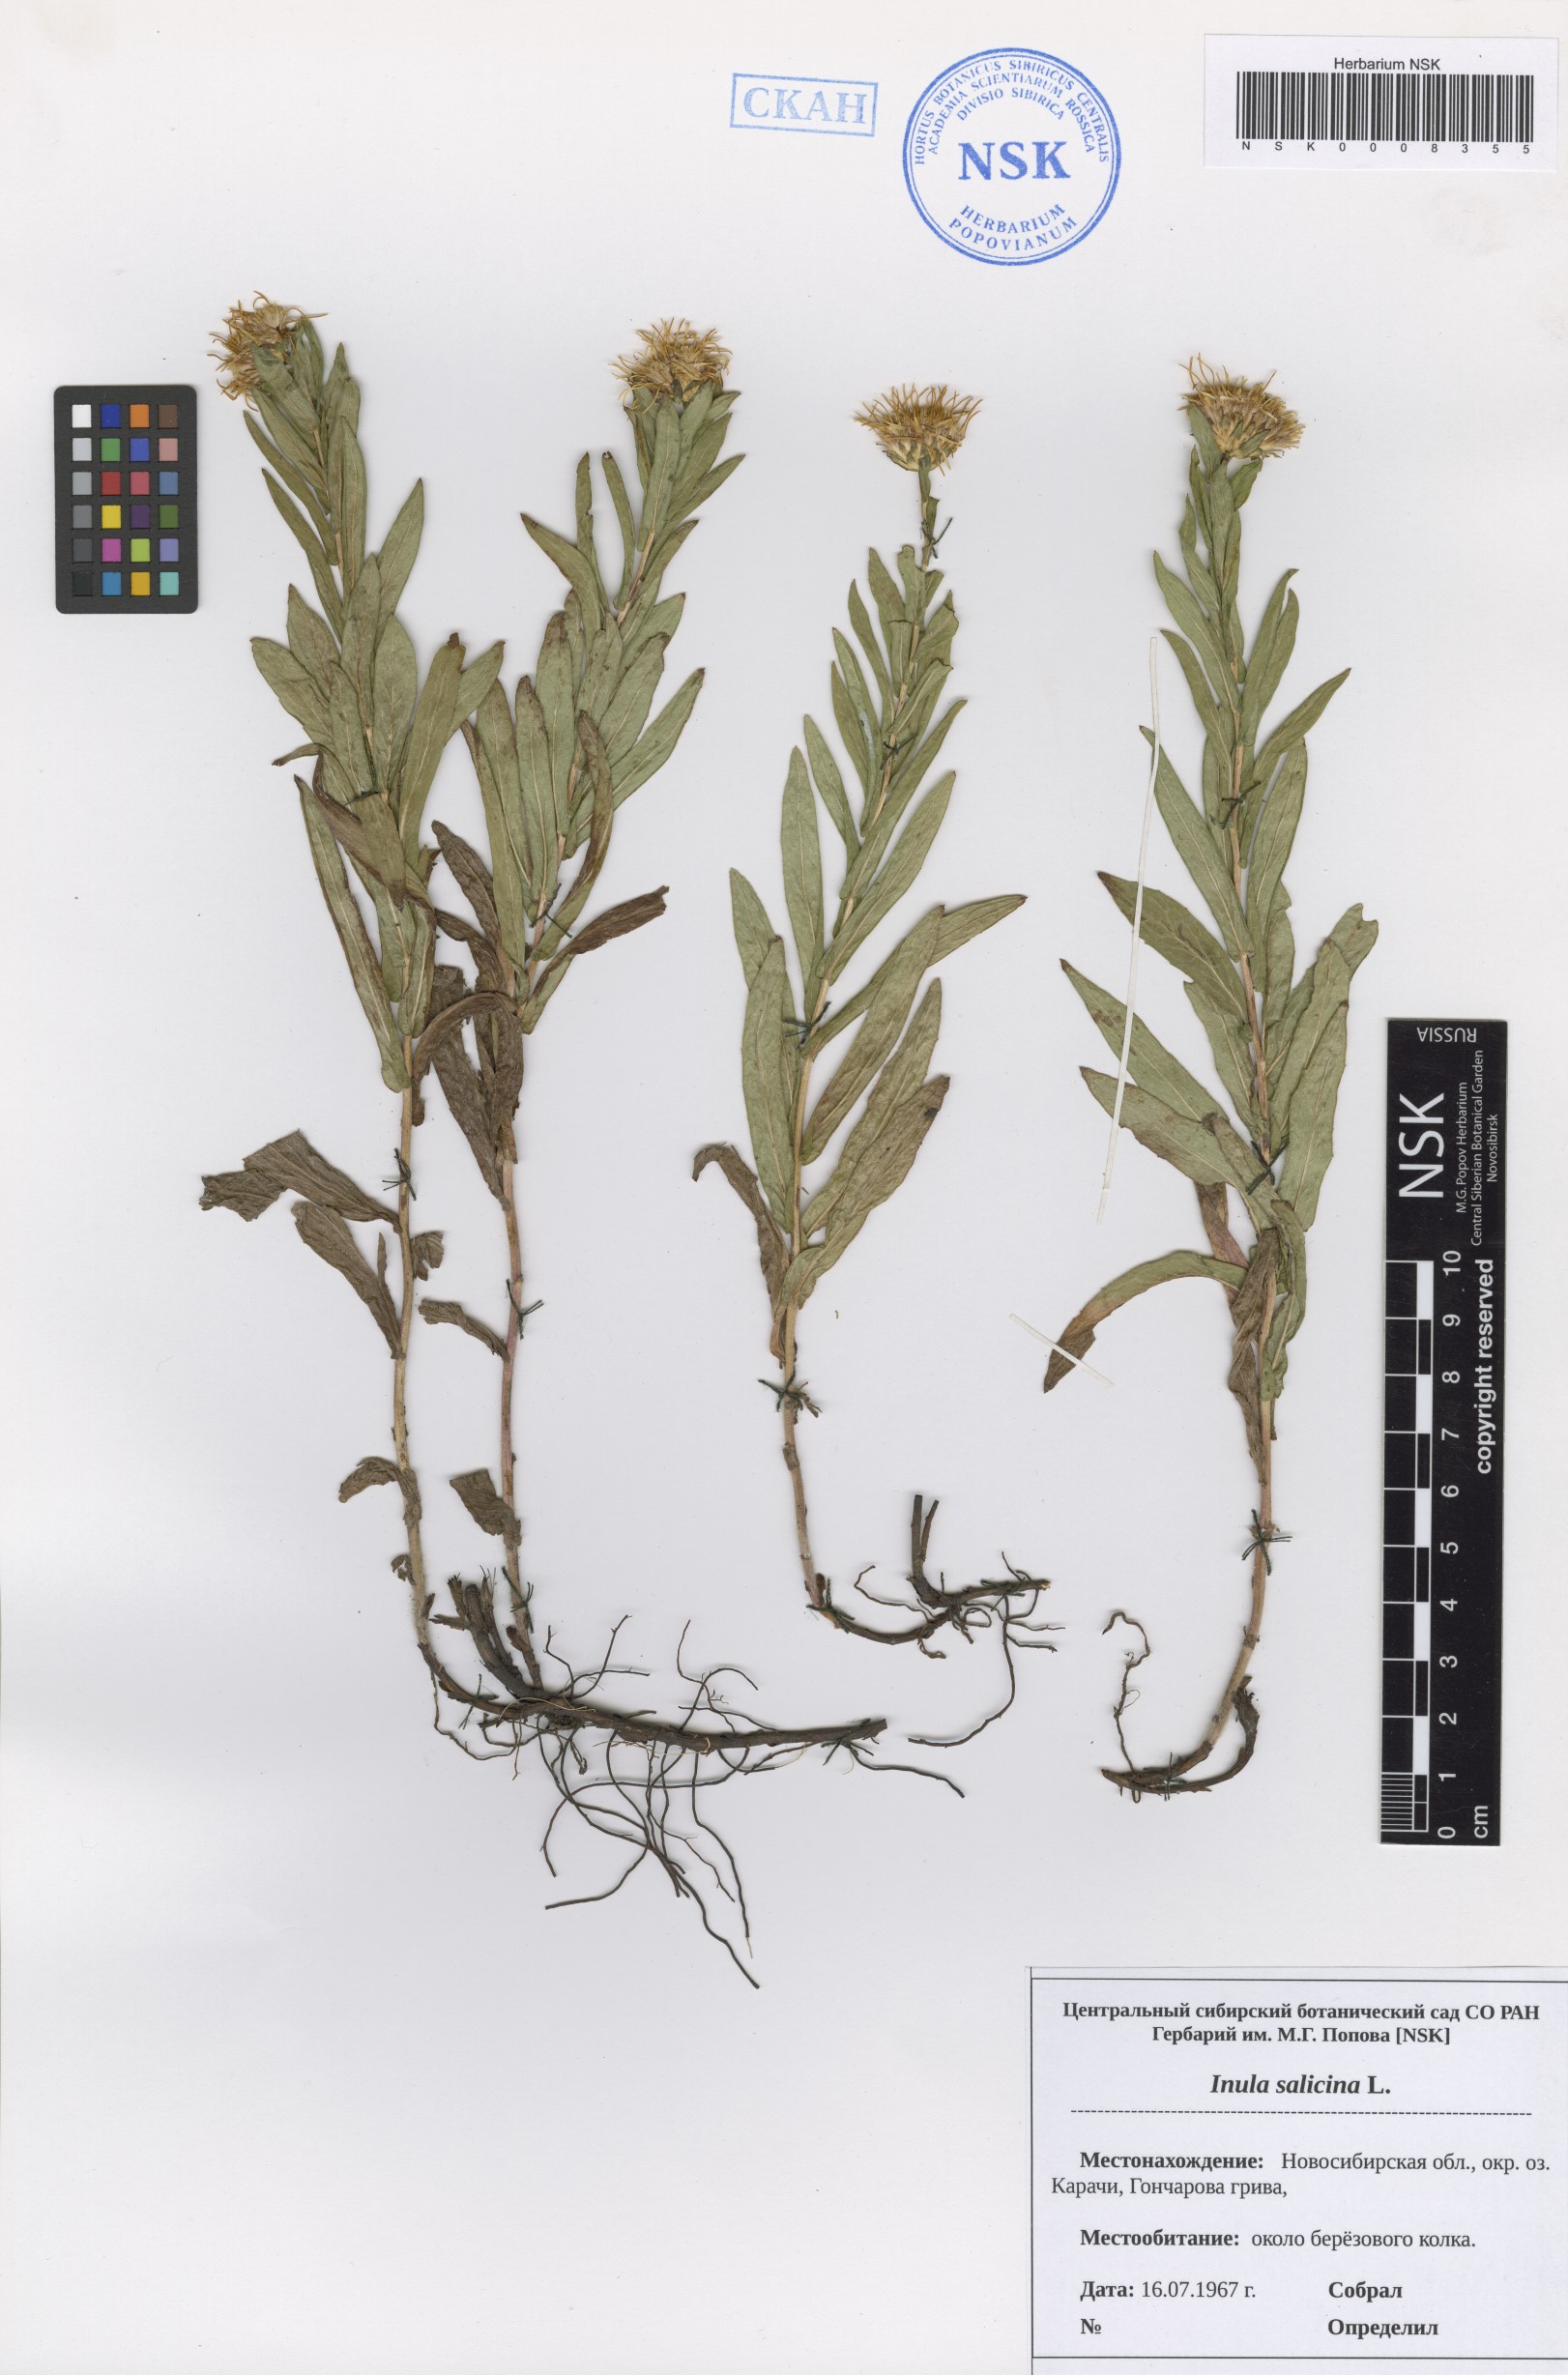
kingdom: Plantae
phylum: Tracheophyta
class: Magnoliopsida
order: Asterales
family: Asteraceae
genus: Pentanema
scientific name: Pentanema salicinum
